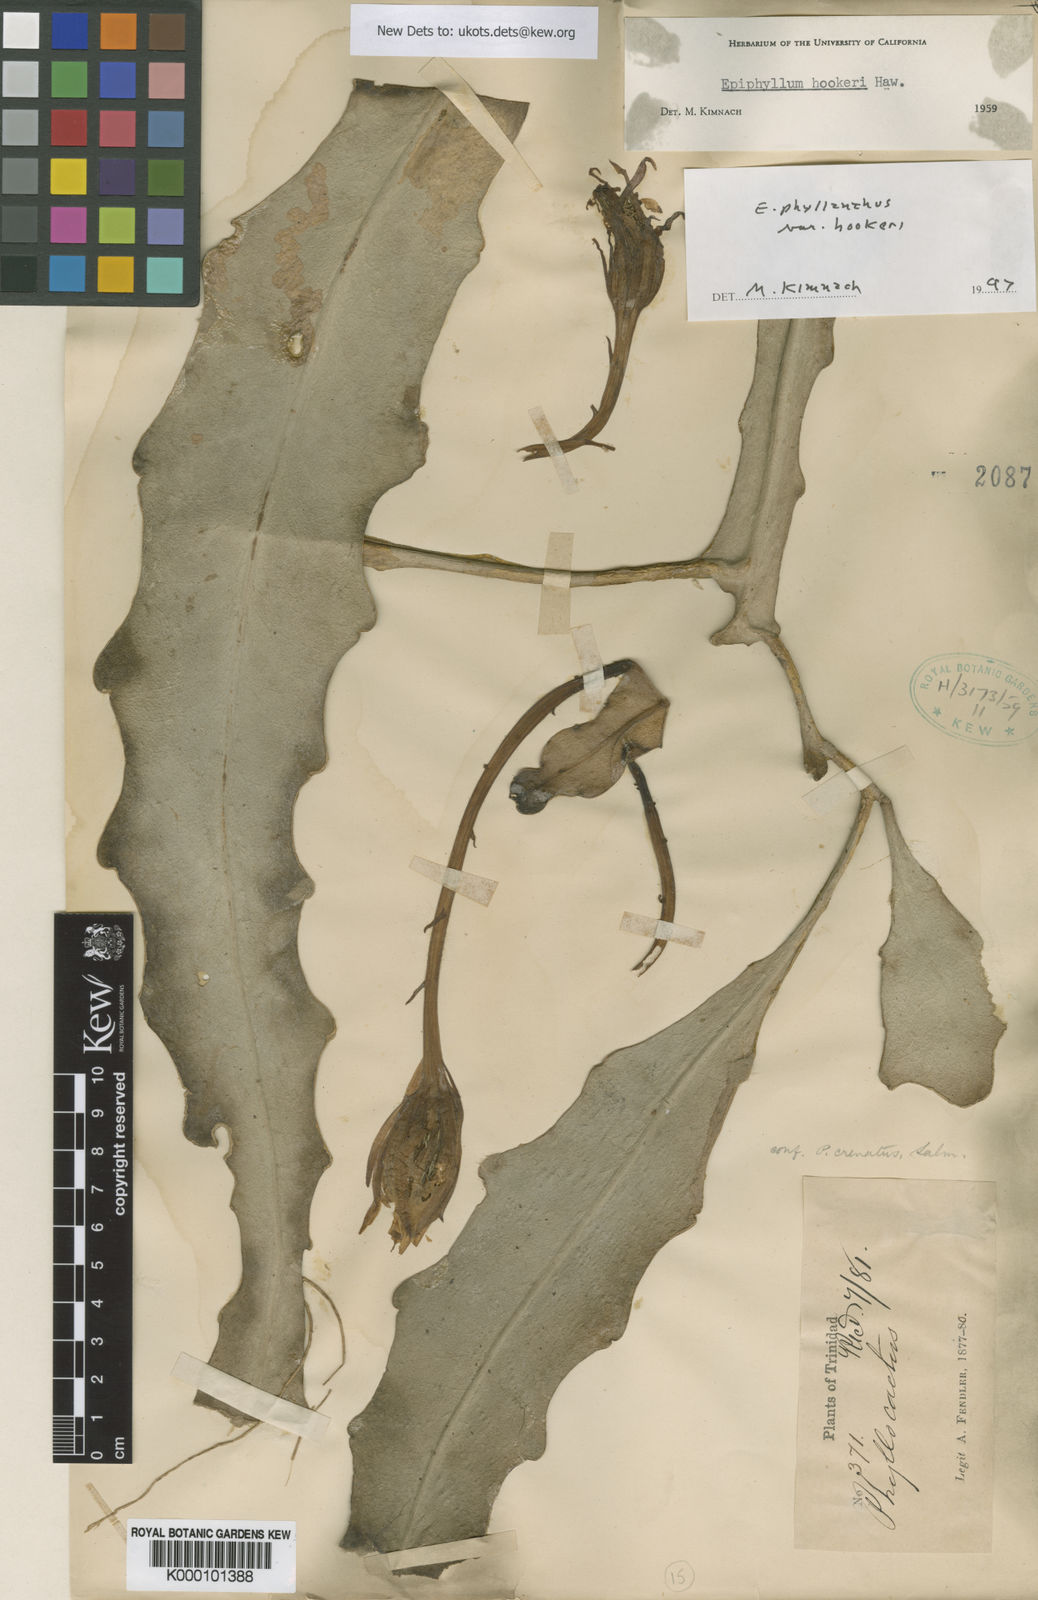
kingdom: Plantae
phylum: Tracheophyta
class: Magnoliopsida
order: Caryophyllales
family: Cactaceae
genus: Epiphyllum
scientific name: Epiphyllum phyllanthus
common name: Climbing cactus
